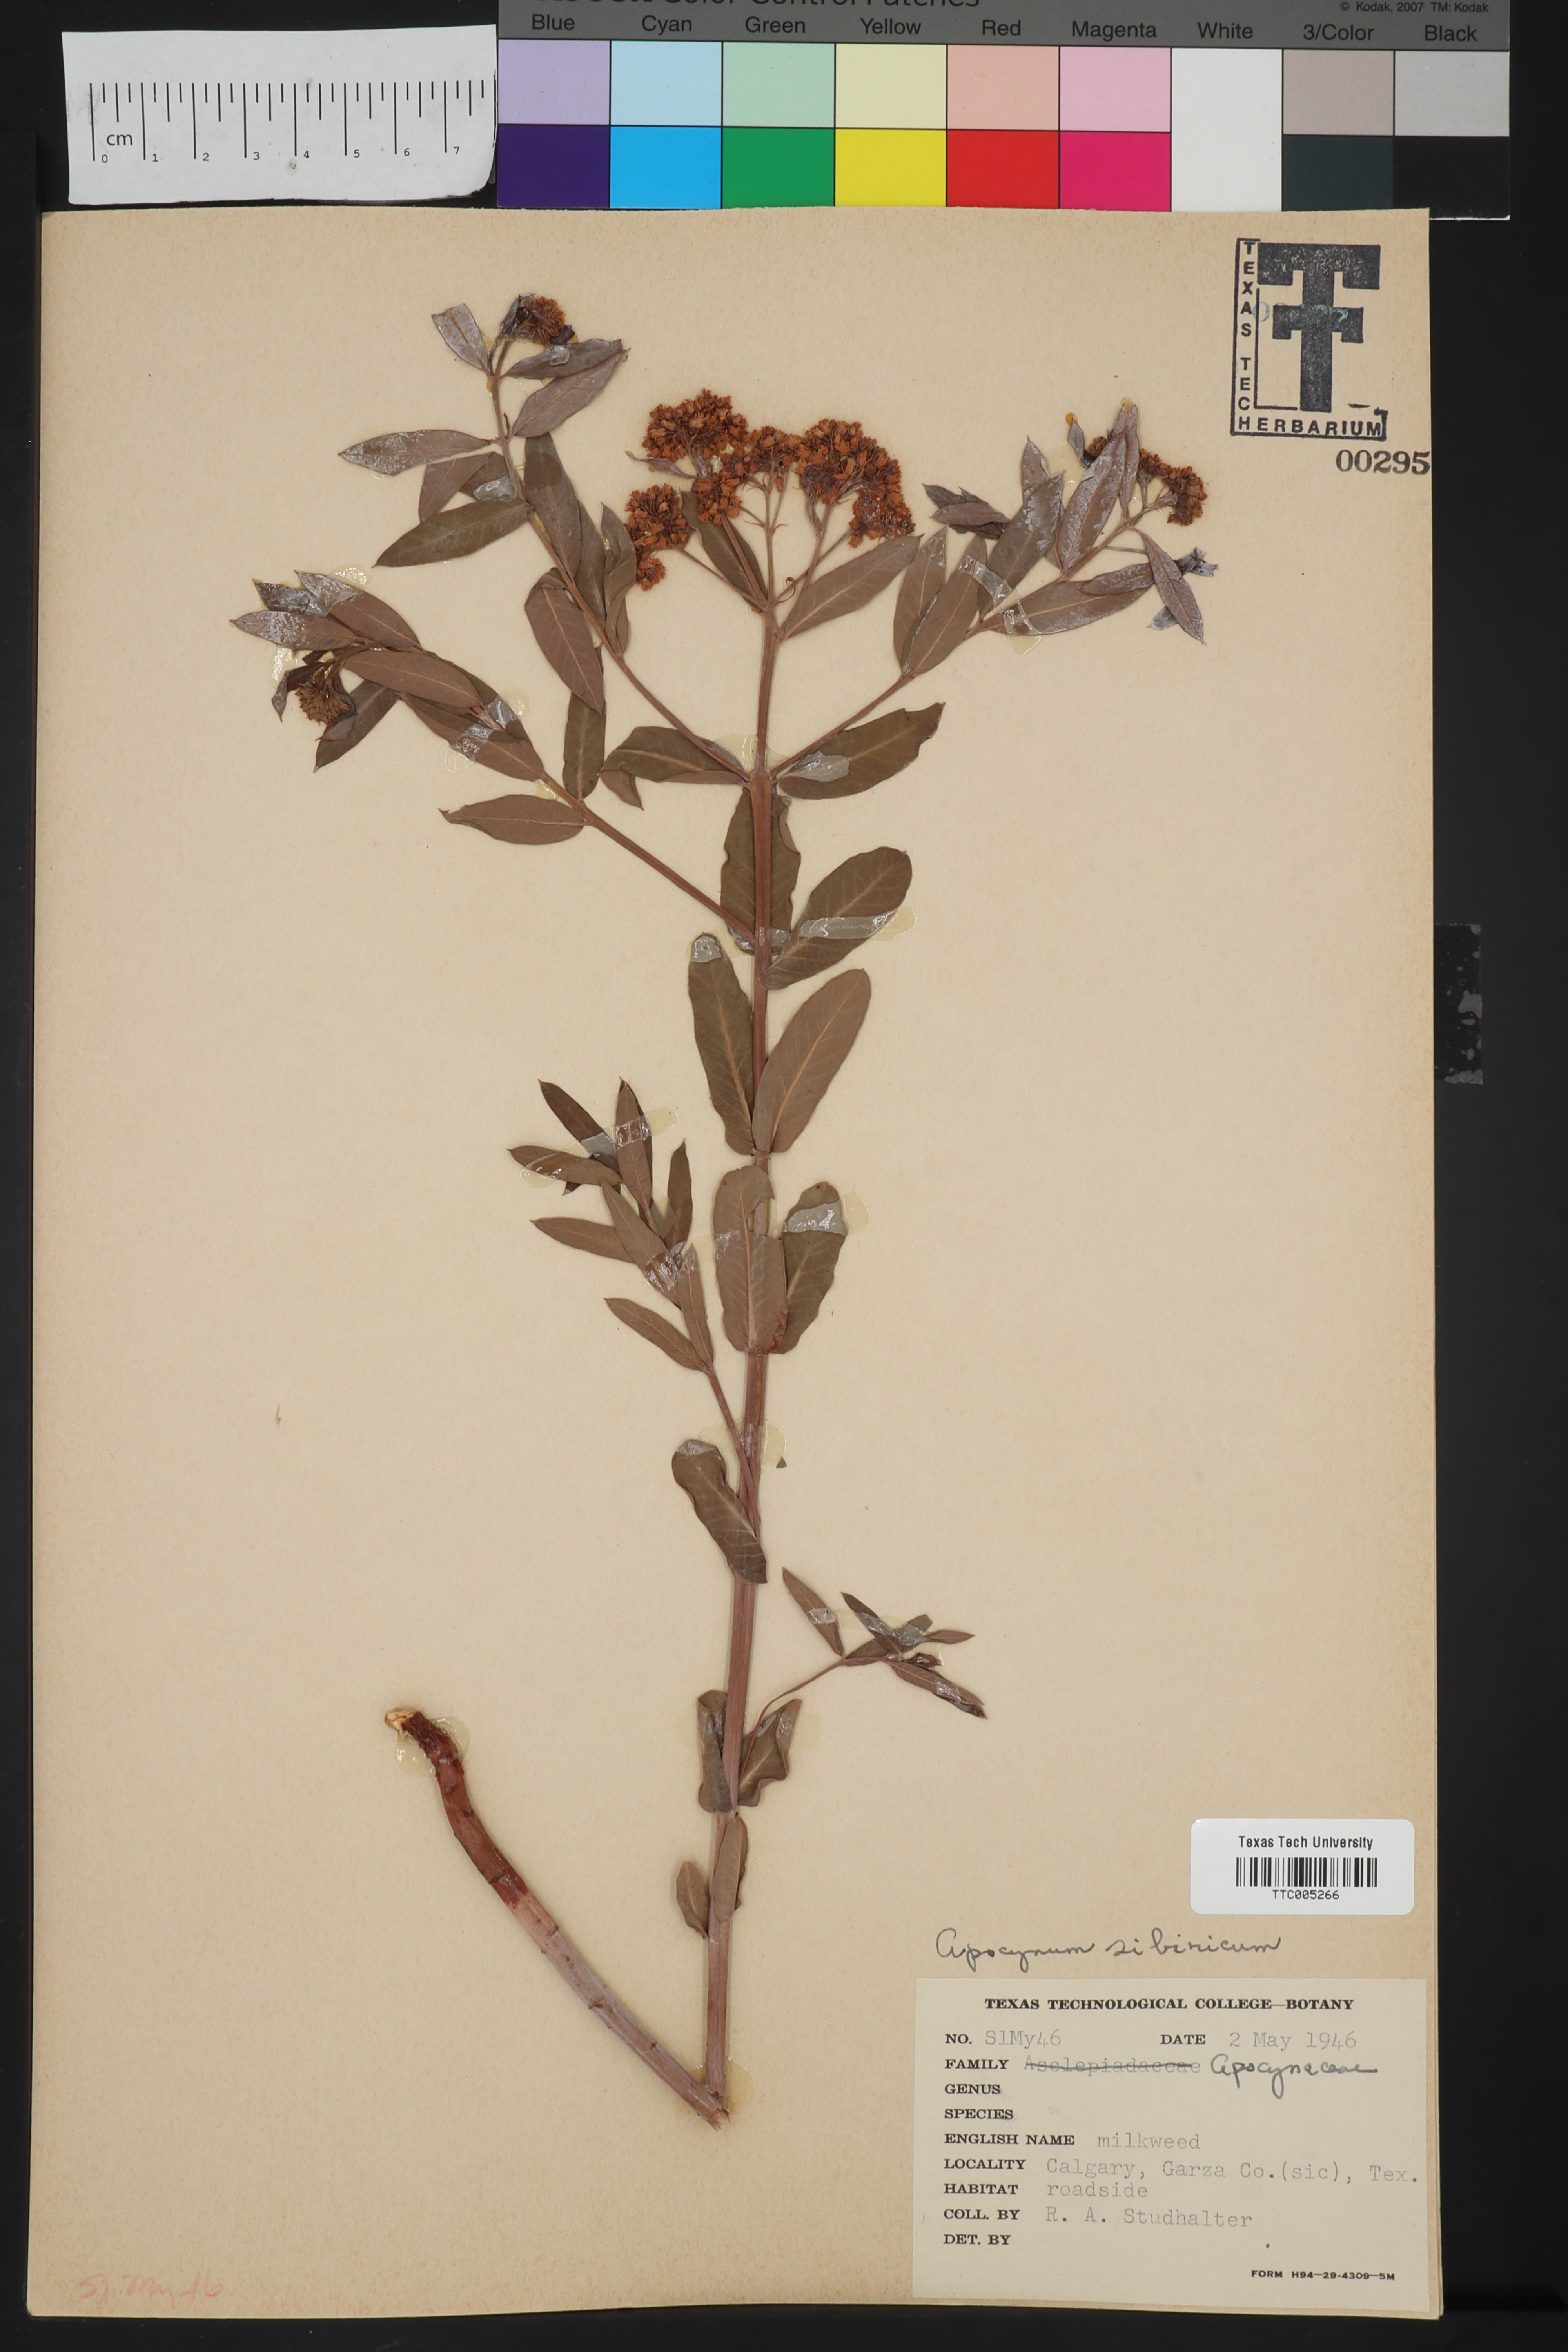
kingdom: Plantae
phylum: Tracheophyta
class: Magnoliopsida
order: Gentianales
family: Apocynaceae
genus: Apocynum
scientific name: Apocynum cannabinum
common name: Hemp dogbane
